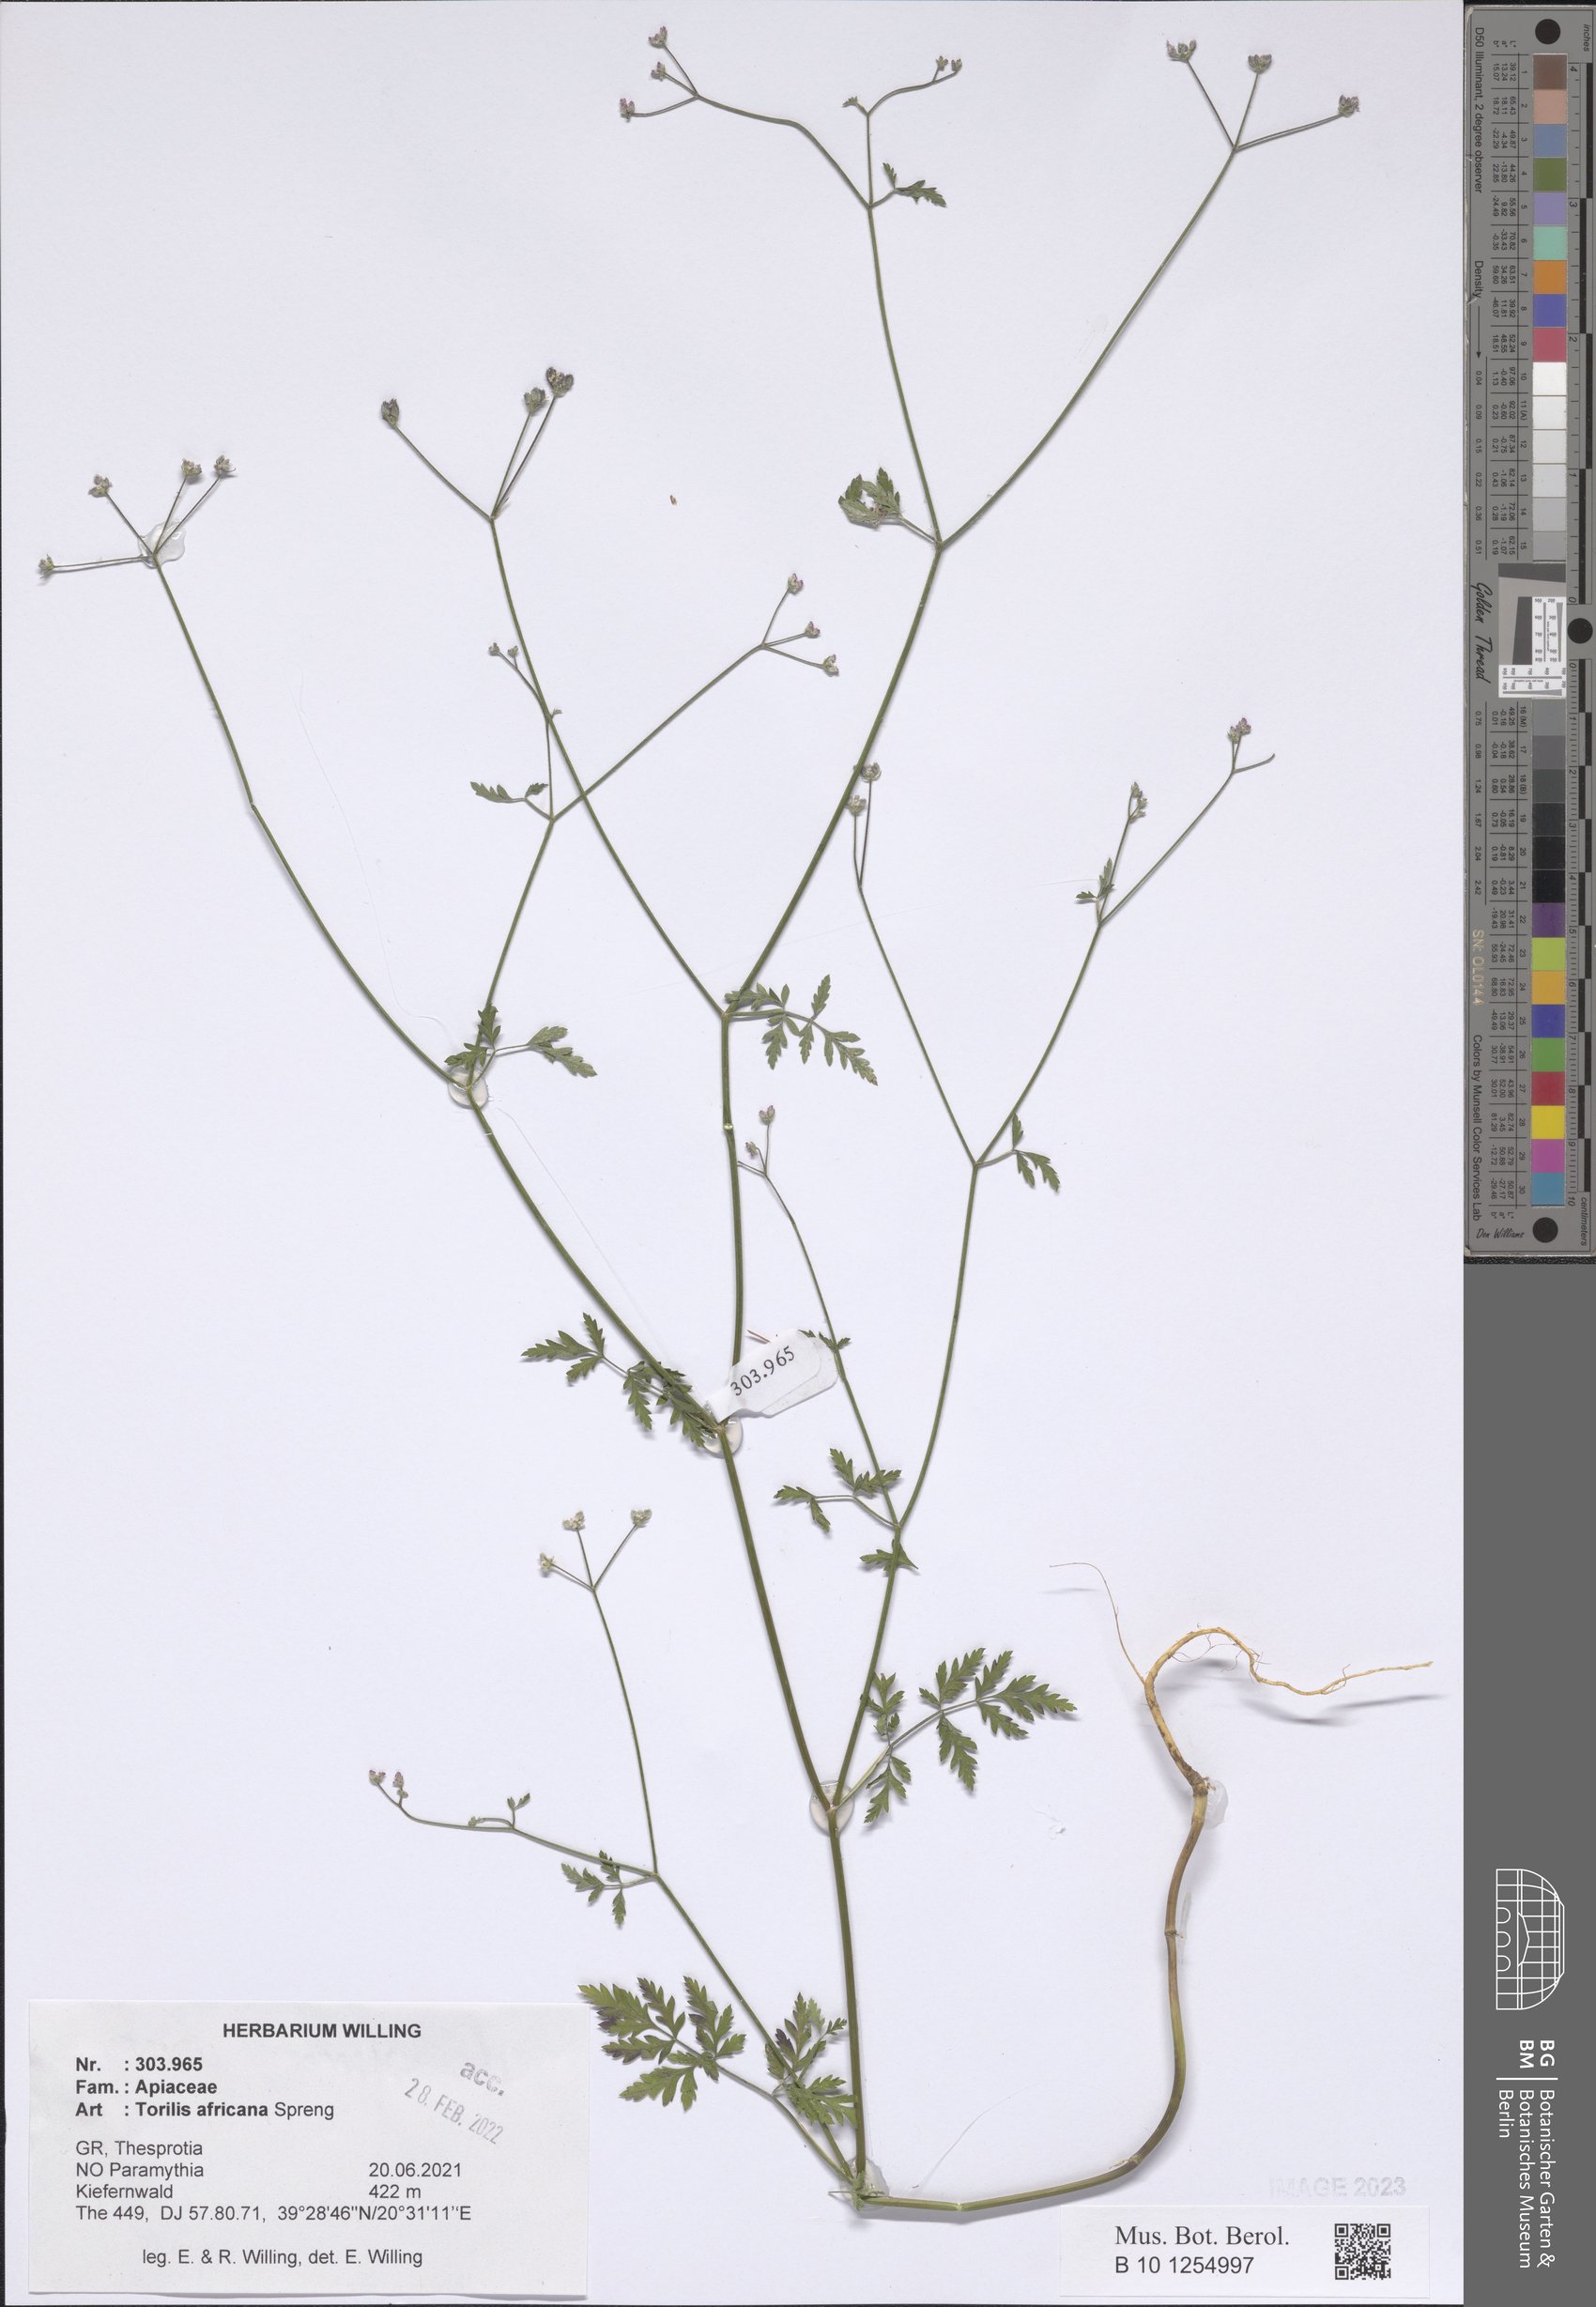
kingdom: Plantae
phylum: Tracheophyta
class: Magnoliopsida
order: Apiales
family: Apiaceae
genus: Torilis
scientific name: Torilis africana
